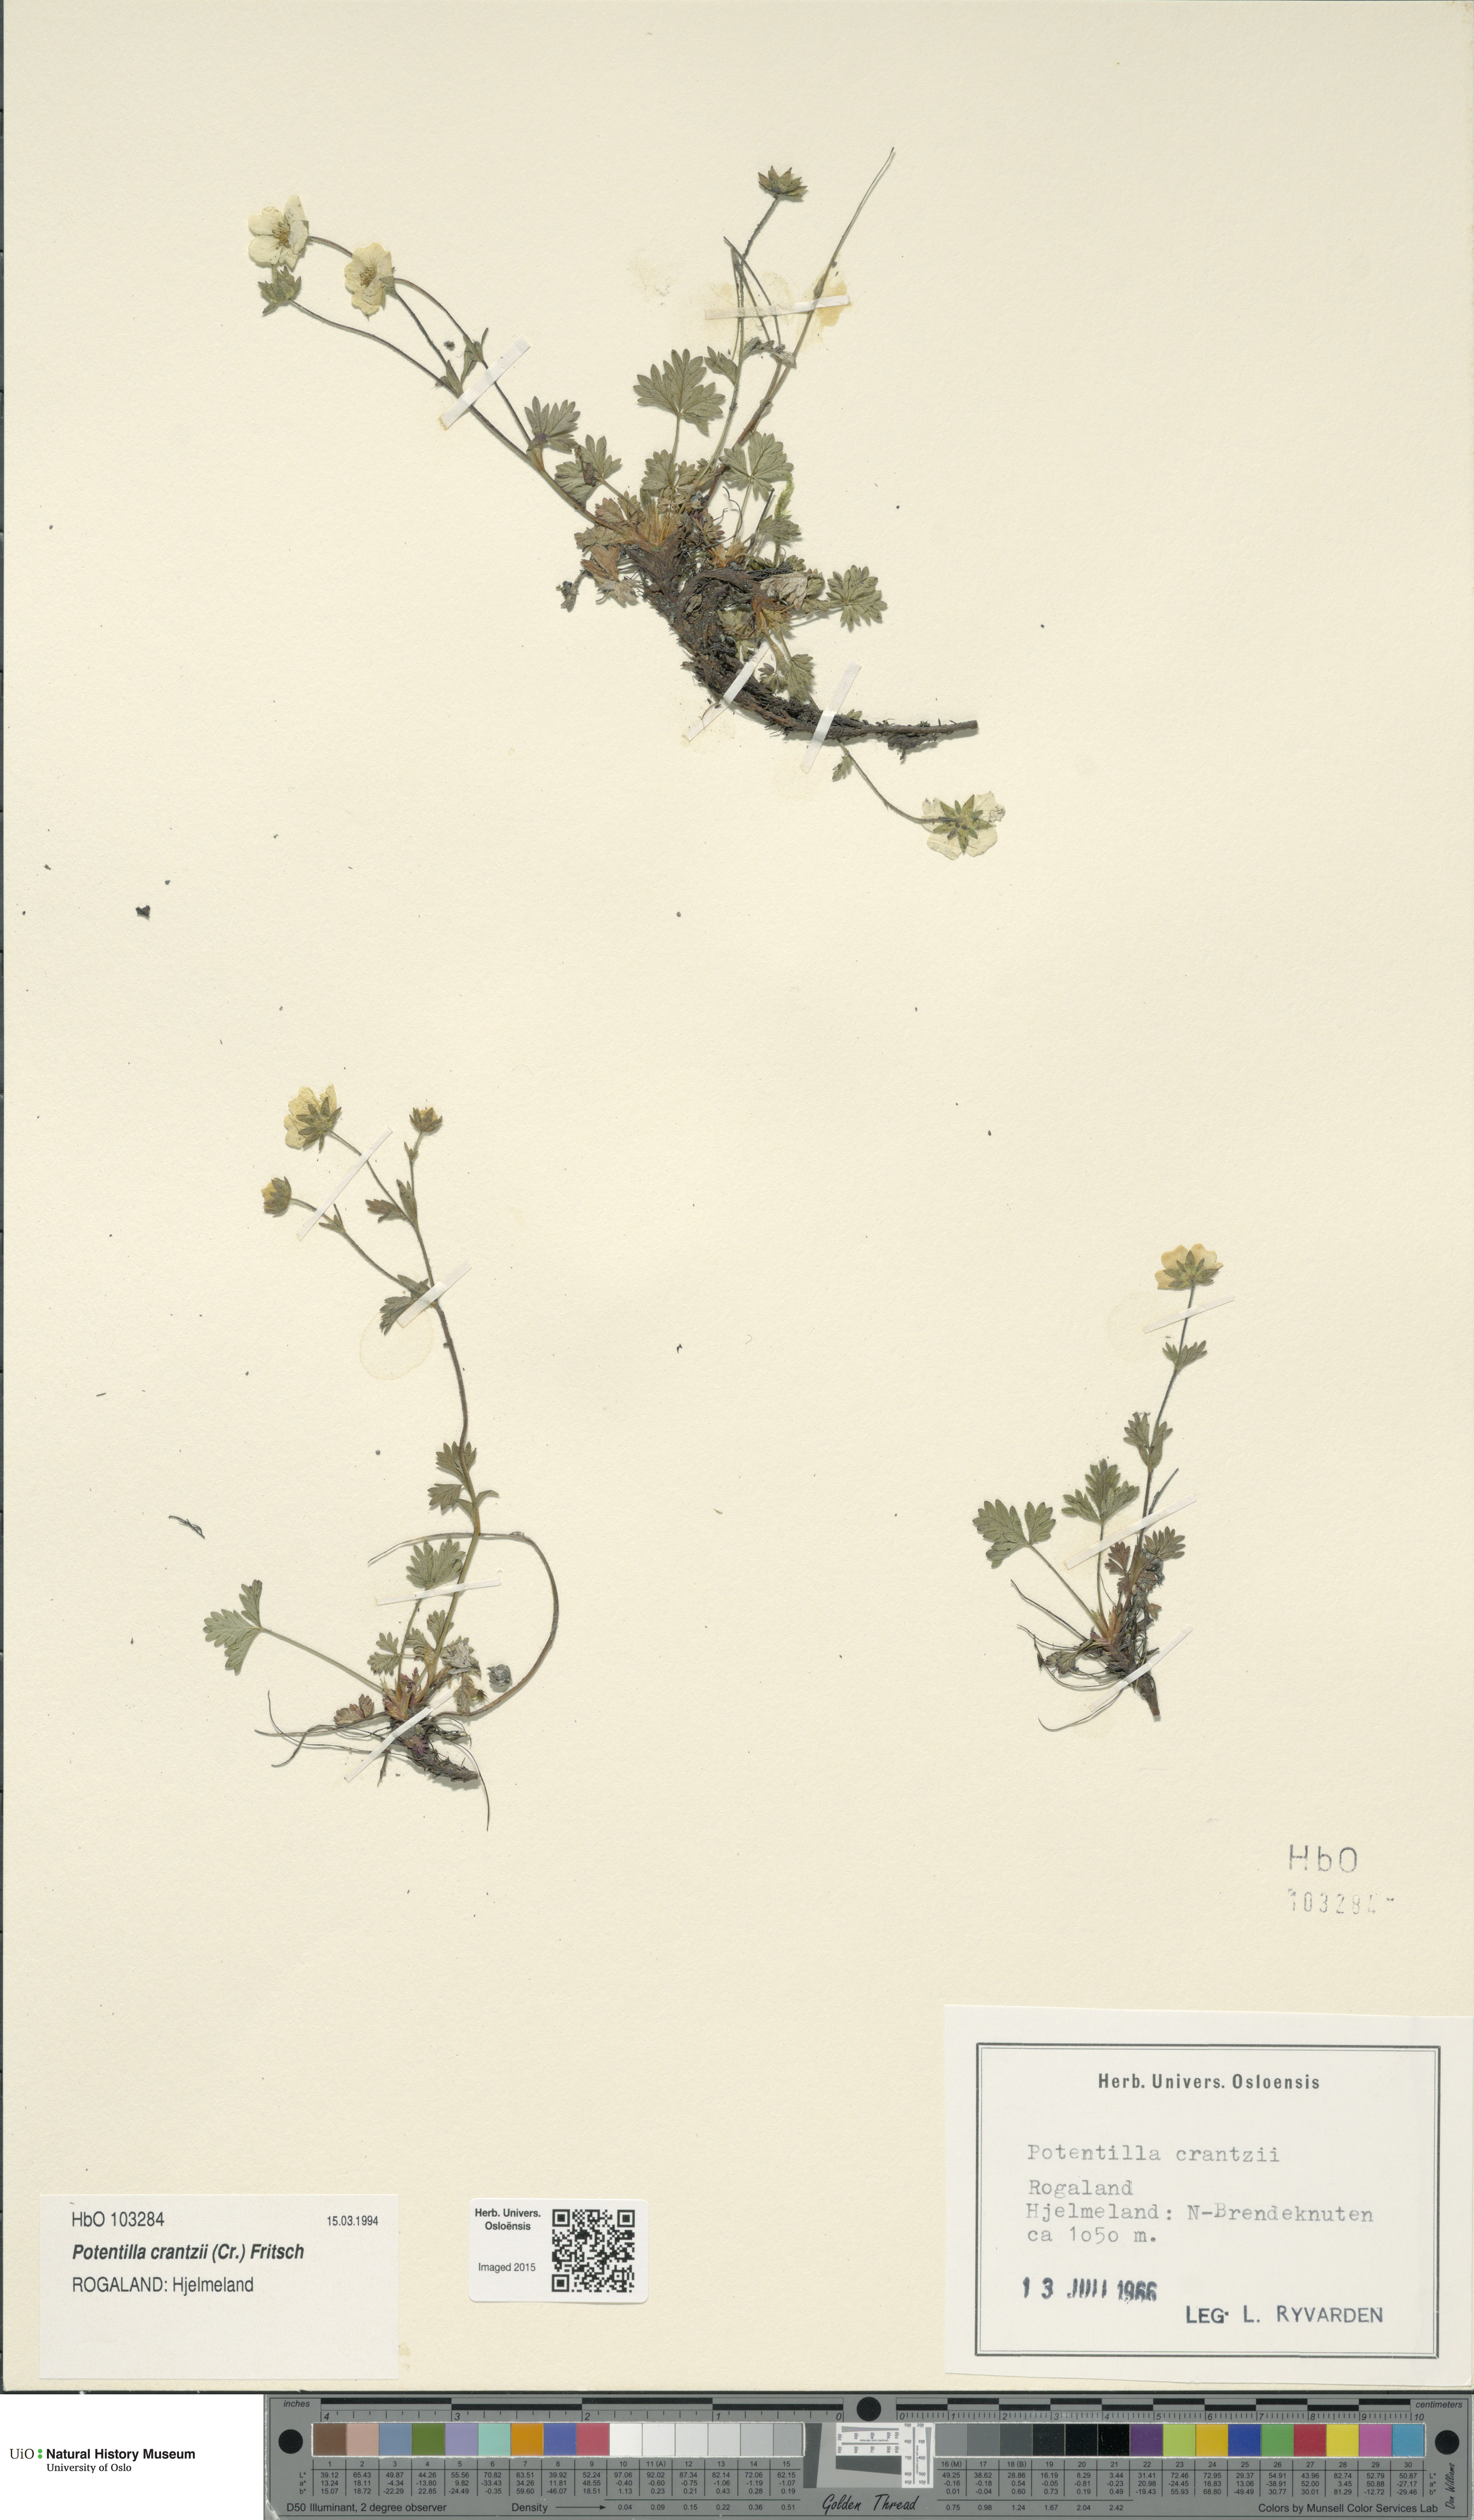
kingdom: Plantae
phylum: Tracheophyta
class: Magnoliopsida
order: Rosales
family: Rosaceae
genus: Potentilla
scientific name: Potentilla crantzii
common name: Alpine cinquefoil
